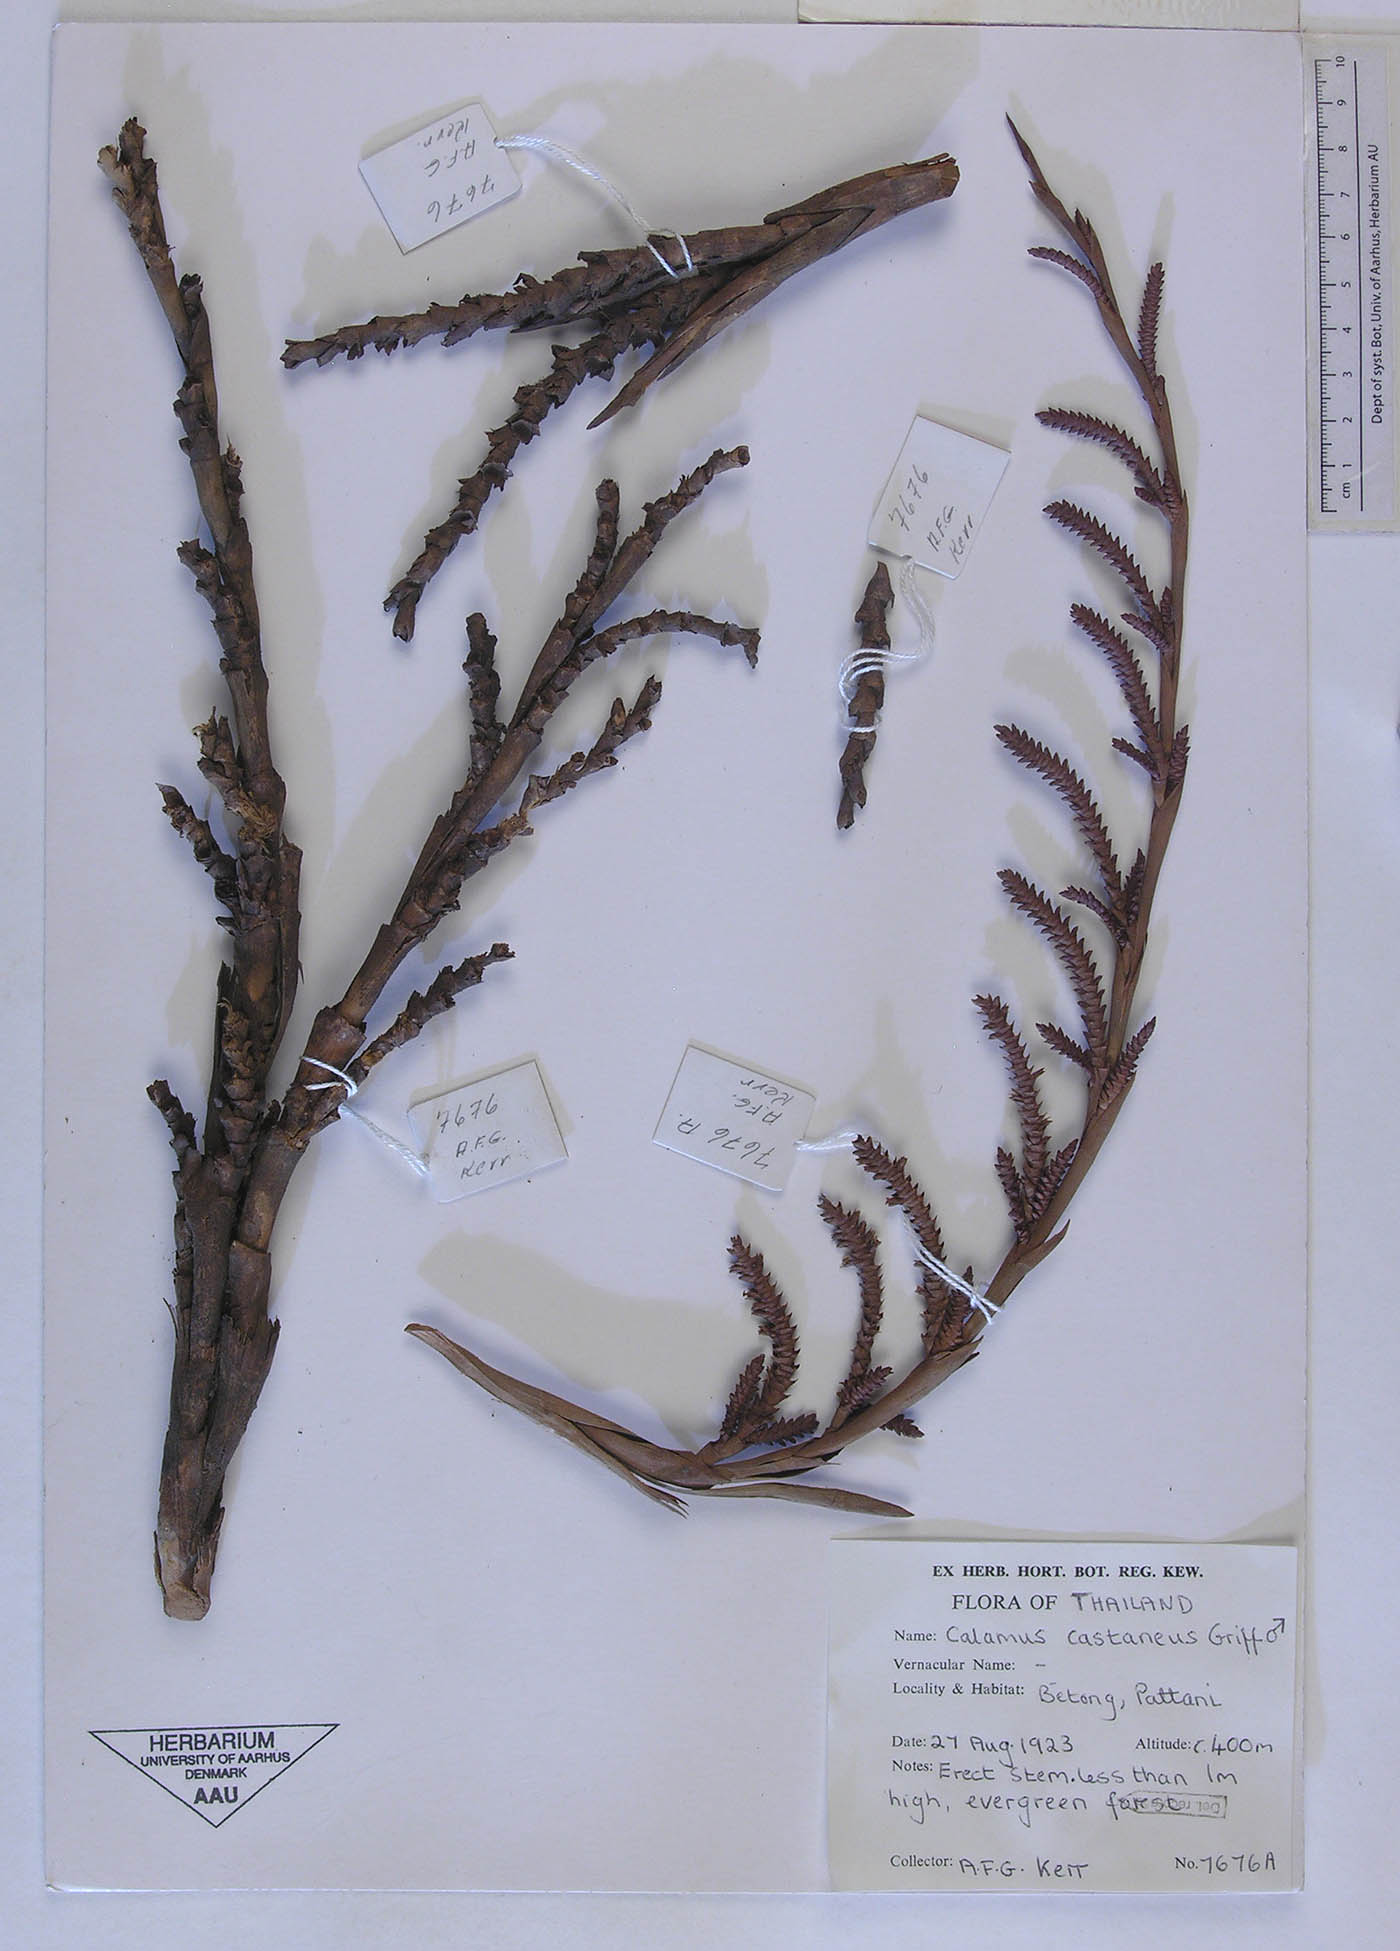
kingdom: Plantae
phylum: Tracheophyta
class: Liliopsida
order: Arecales
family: Arecaceae
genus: Calamus
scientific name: Calamus castaneus
